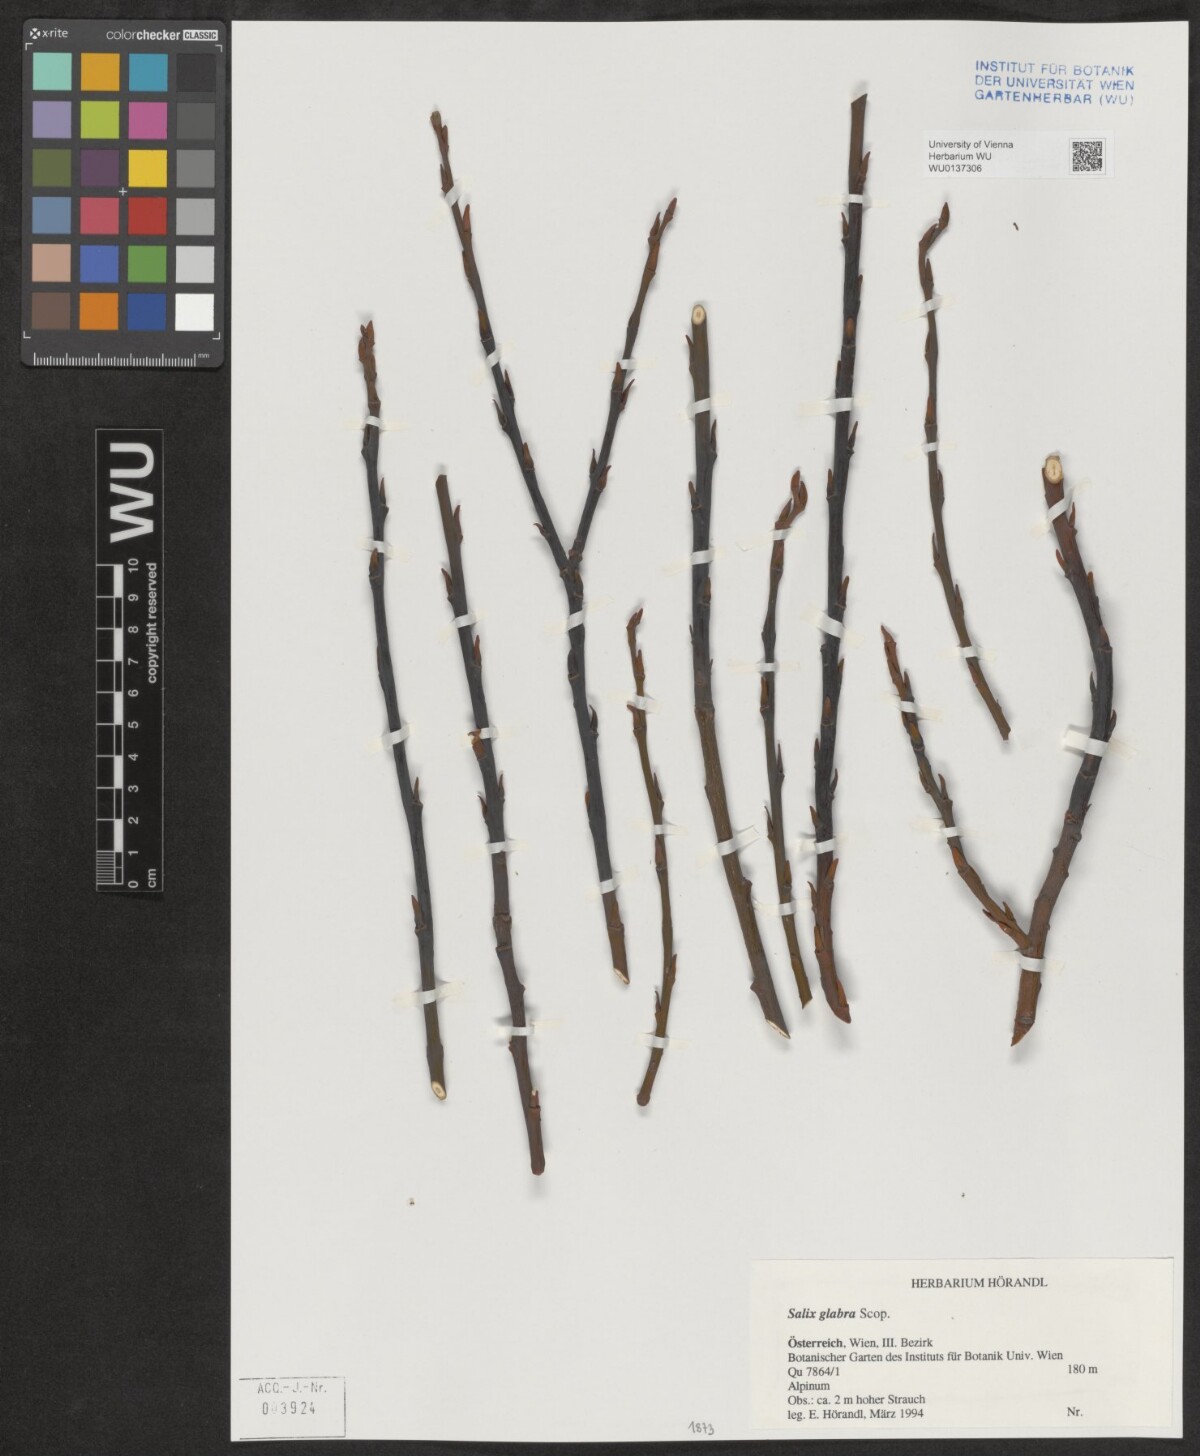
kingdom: Plantae
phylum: Tracheophyta
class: Magnoliopsida
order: Malpighiales
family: Salicaceae
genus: Salix
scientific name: Salix glabra
